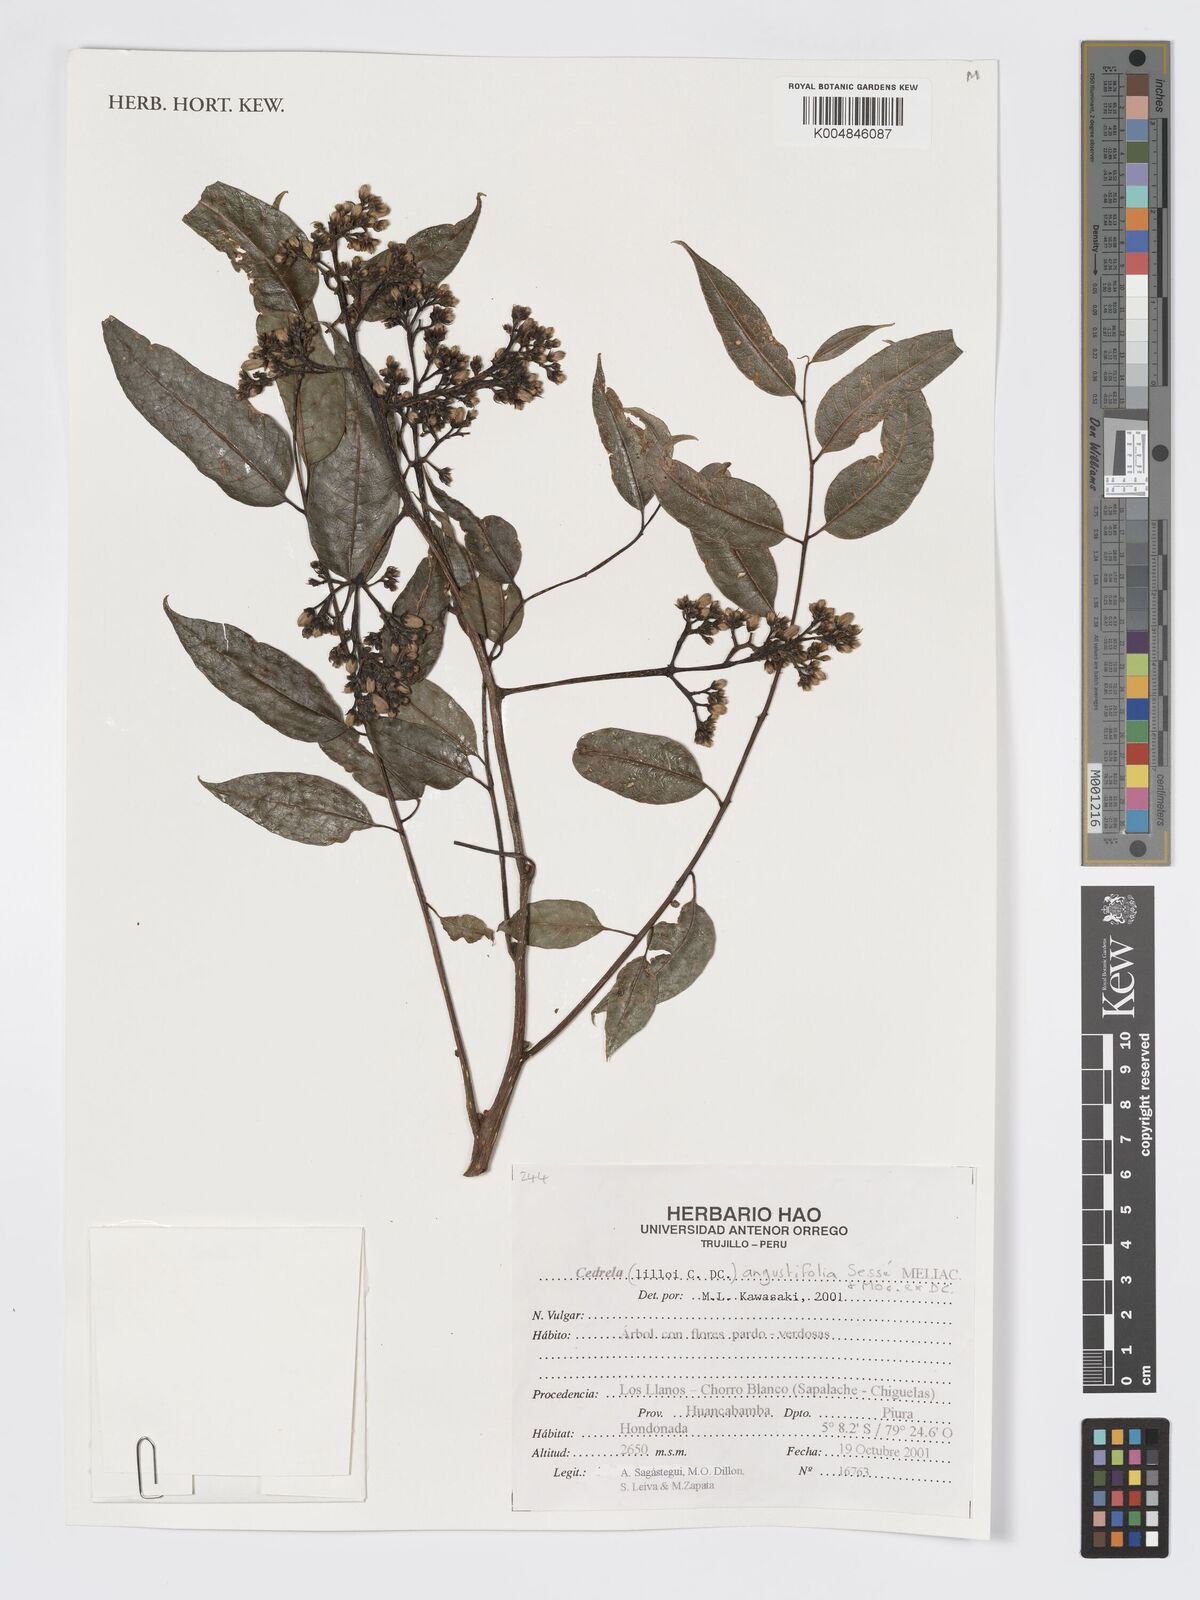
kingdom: Plantae
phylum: Tracheophyta
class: Magnoliopsida
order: Sapindales
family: Meliaceae
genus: Cedrela
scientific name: Cedrela odorata
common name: Red cedar
